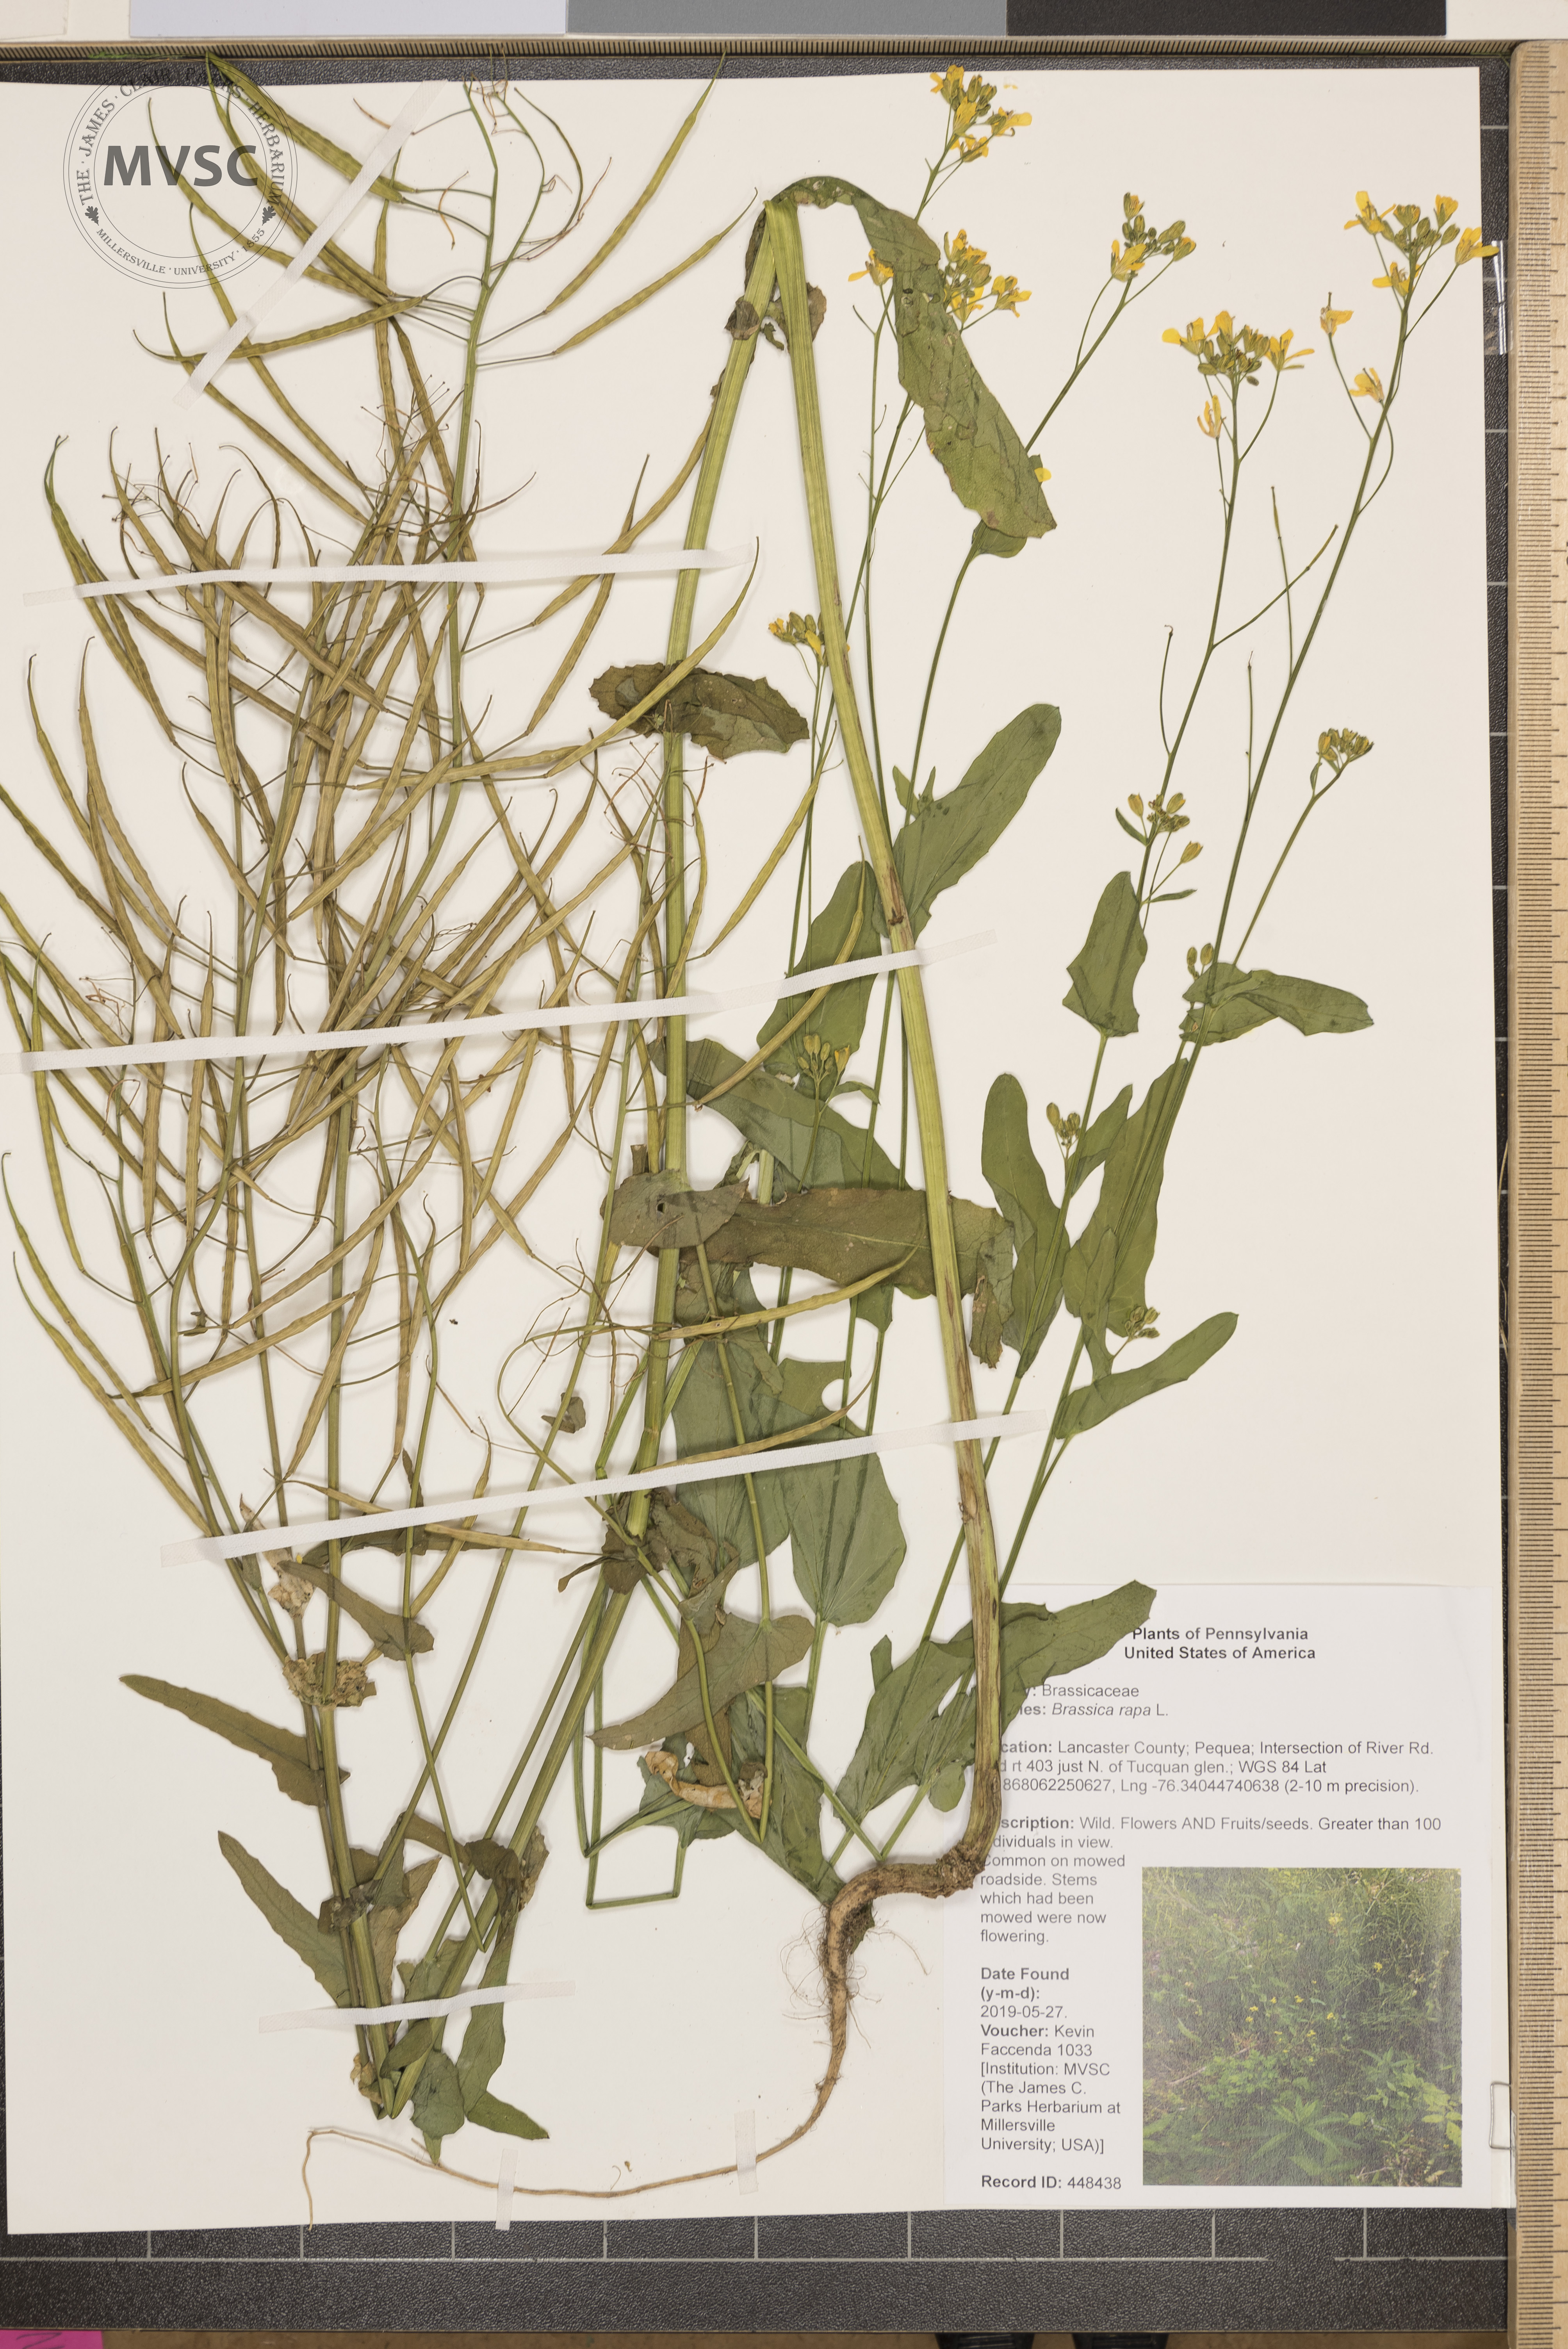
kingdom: Plantae
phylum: Tracheophyta
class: Magnoliopsida
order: Brassicales
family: Brassicaceae
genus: Brassica
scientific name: Brassica rapa
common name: Field mustard
